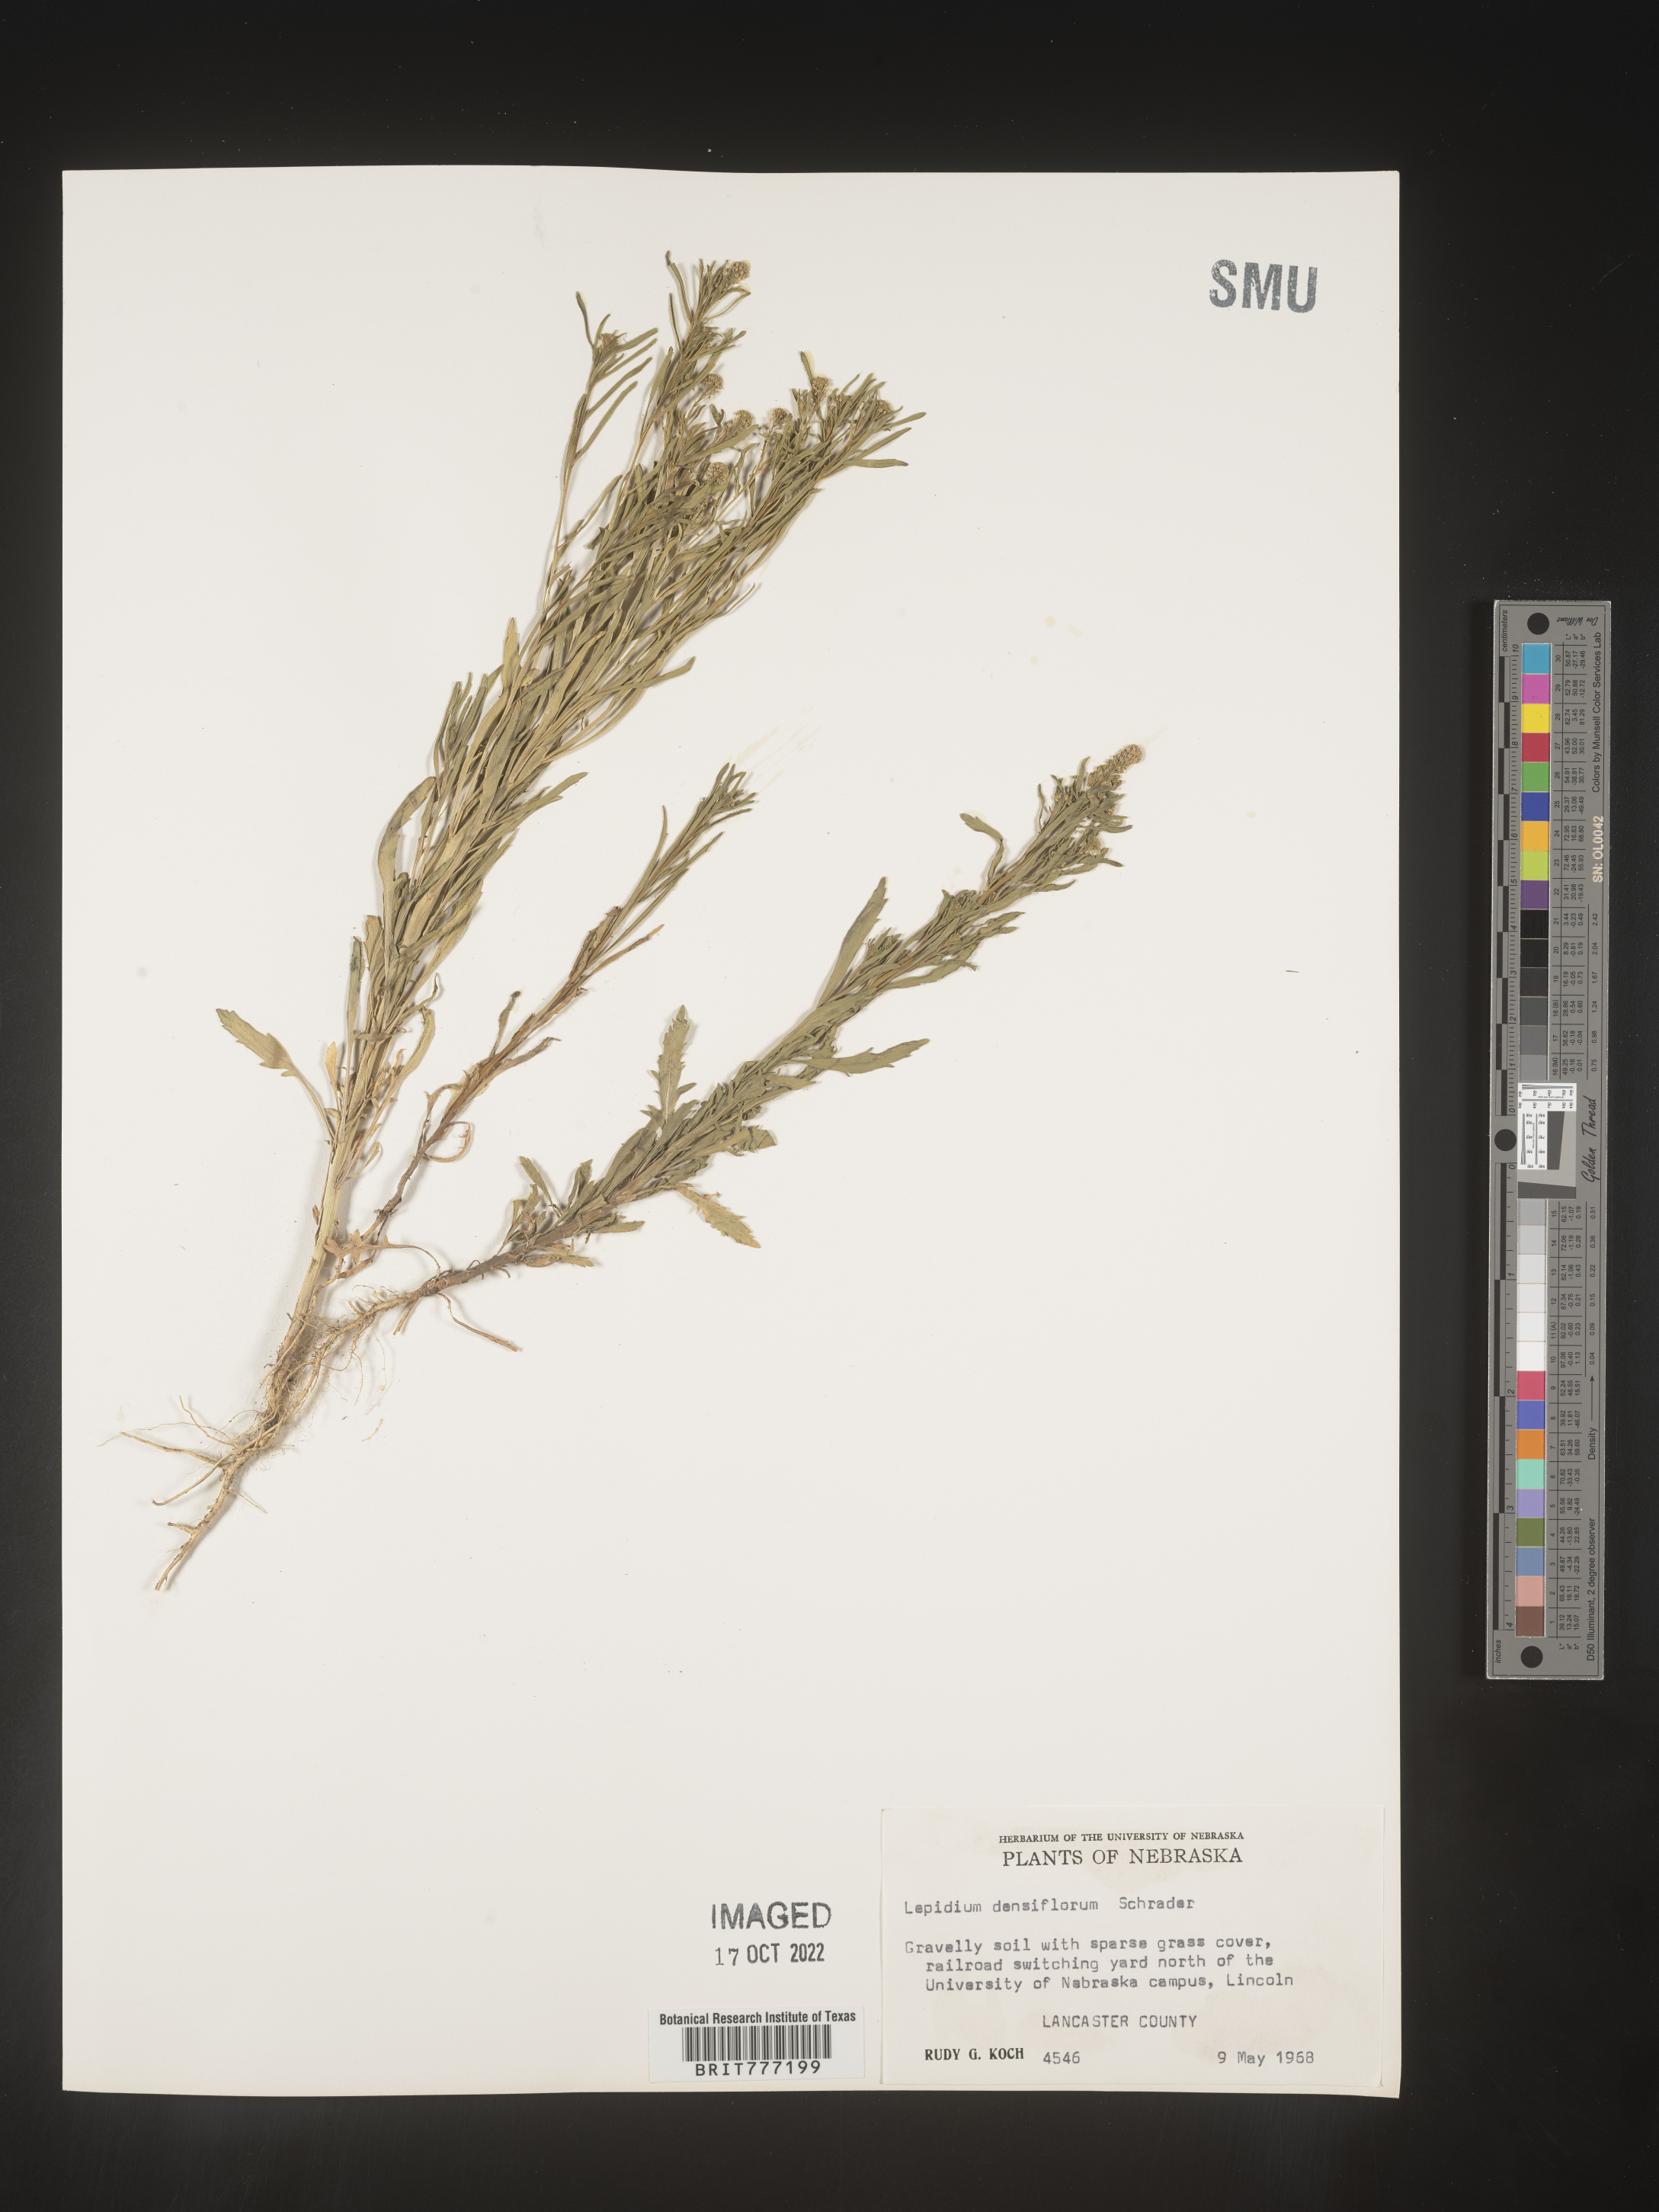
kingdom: Plantae
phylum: Tracheophyta
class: Magnoliopsida
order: Brassicales
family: Brassicaceae
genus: Lepidium
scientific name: Lepidium densiflorum
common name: Miner's pepperwort
